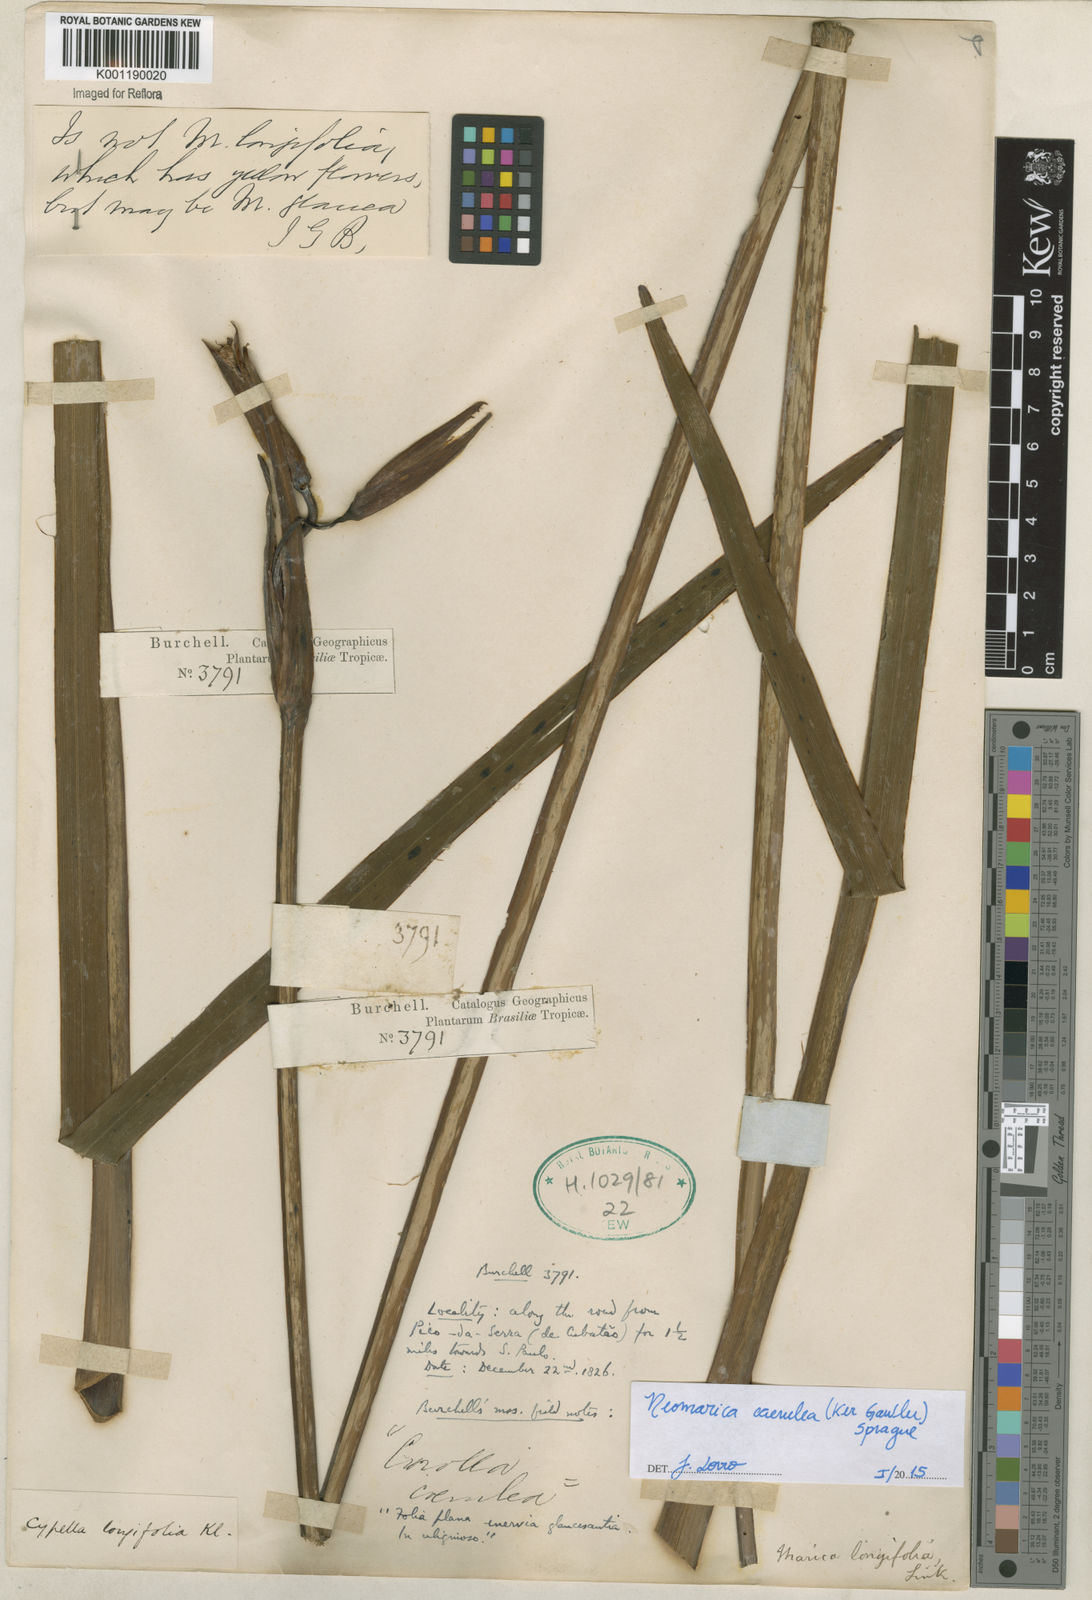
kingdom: Plantae
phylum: Tracheophyta
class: Liliopsida
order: Asparagales
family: Iridaceae
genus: Trimezia
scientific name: Trimezia
